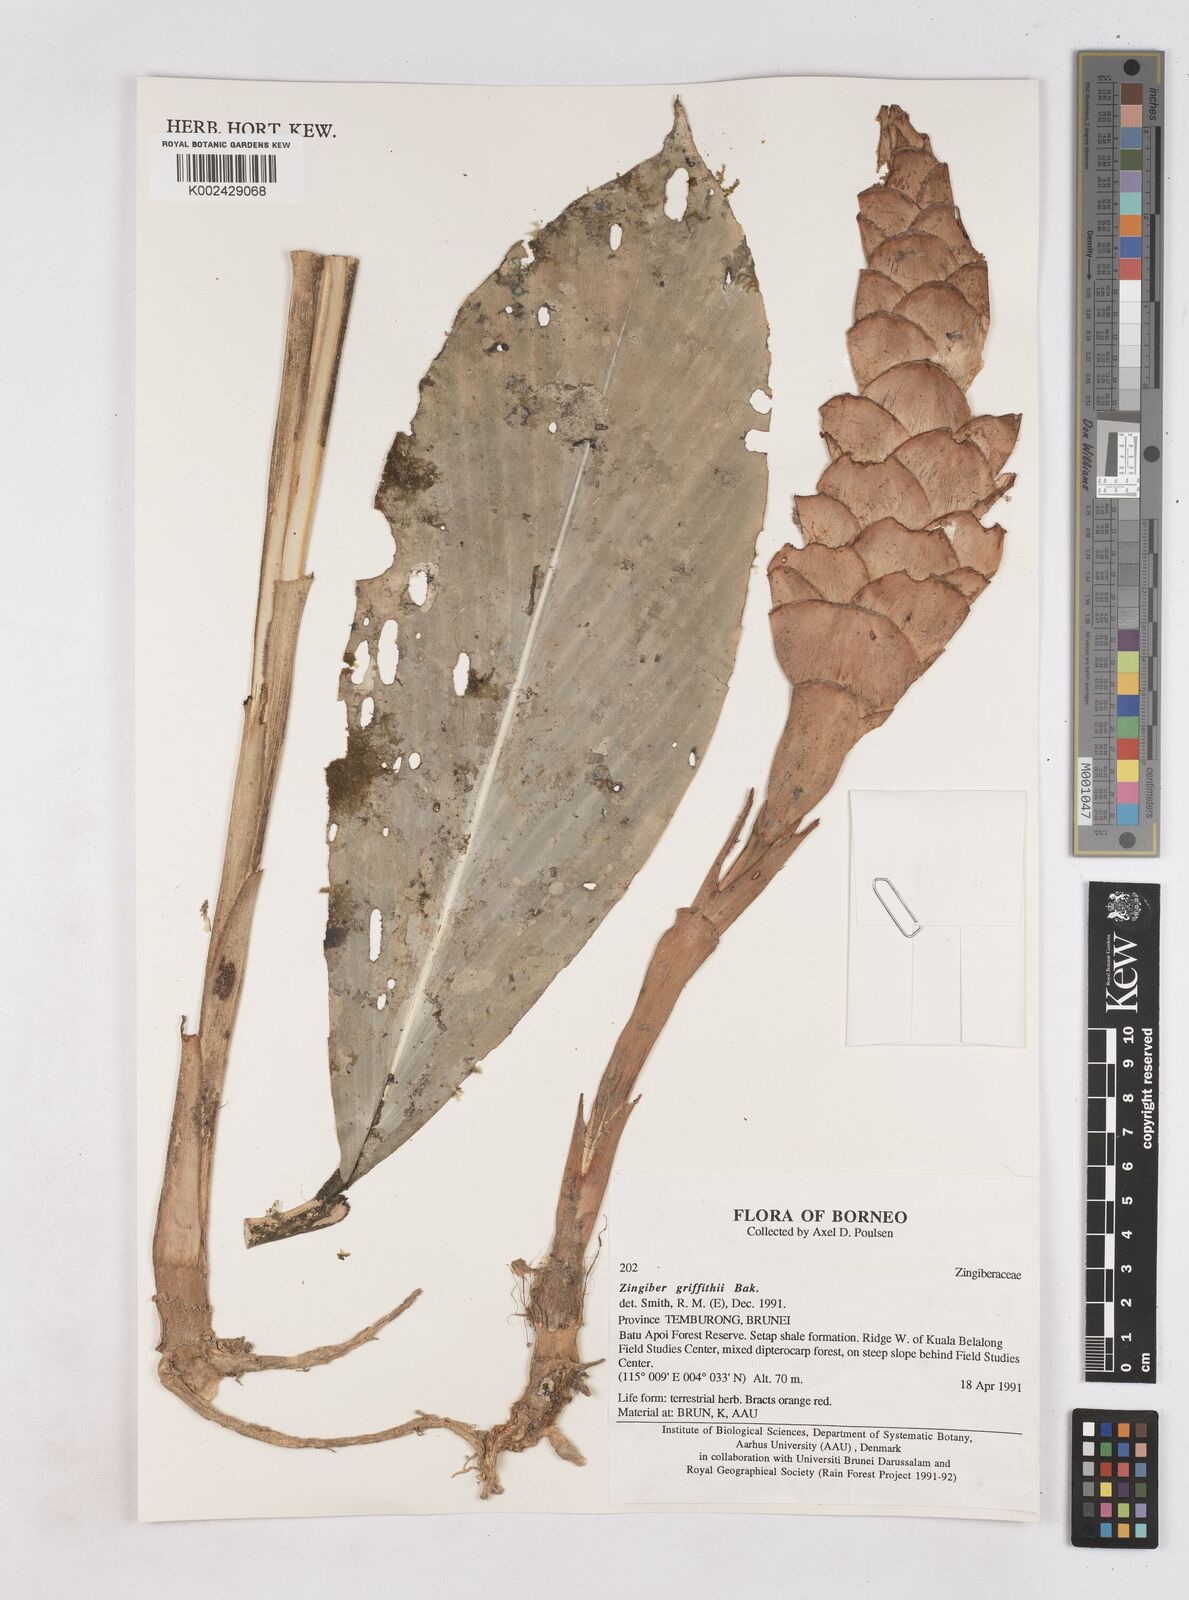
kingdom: Plantae
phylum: Tracheophyta
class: Liliopsida
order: Zingiberales
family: Zingiberaceae
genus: Zingiber
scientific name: Zingiber griffithii
